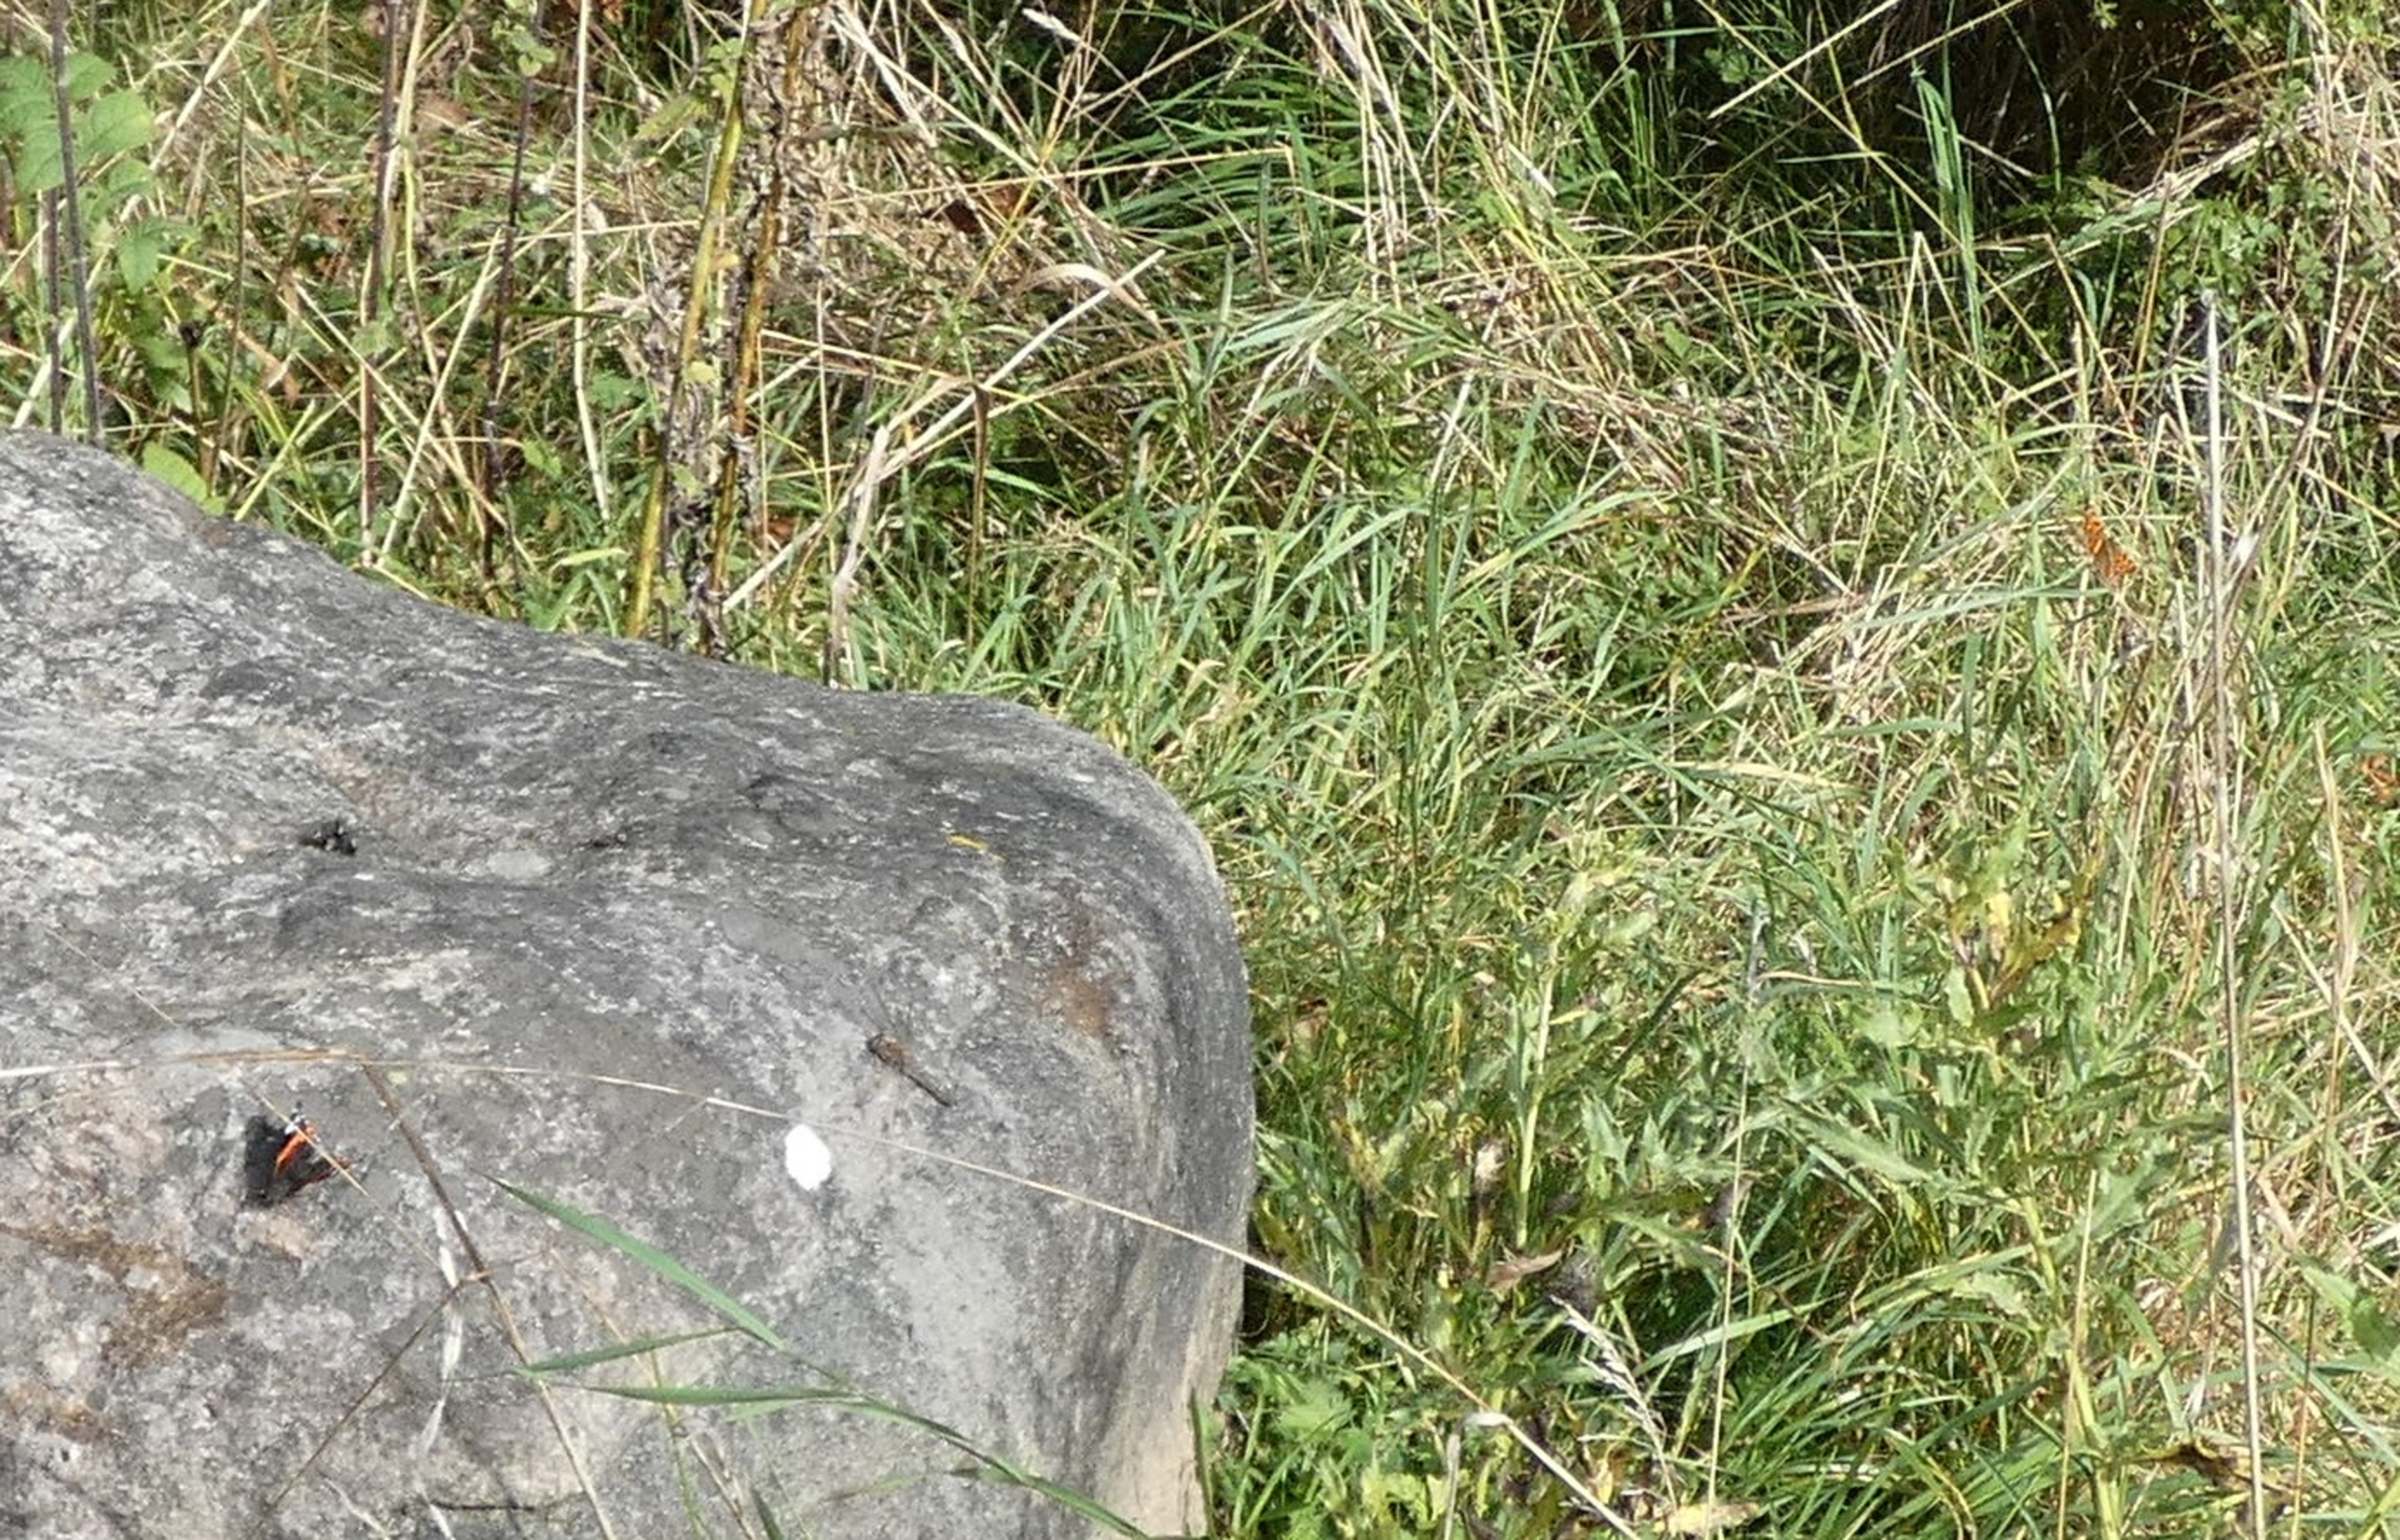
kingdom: Animalia
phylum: Arthropoda
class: Insecta
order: Lepidoptera
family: Nymphalidae
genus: Polygonia
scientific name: Polygonia c-album
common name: Det hvide C
